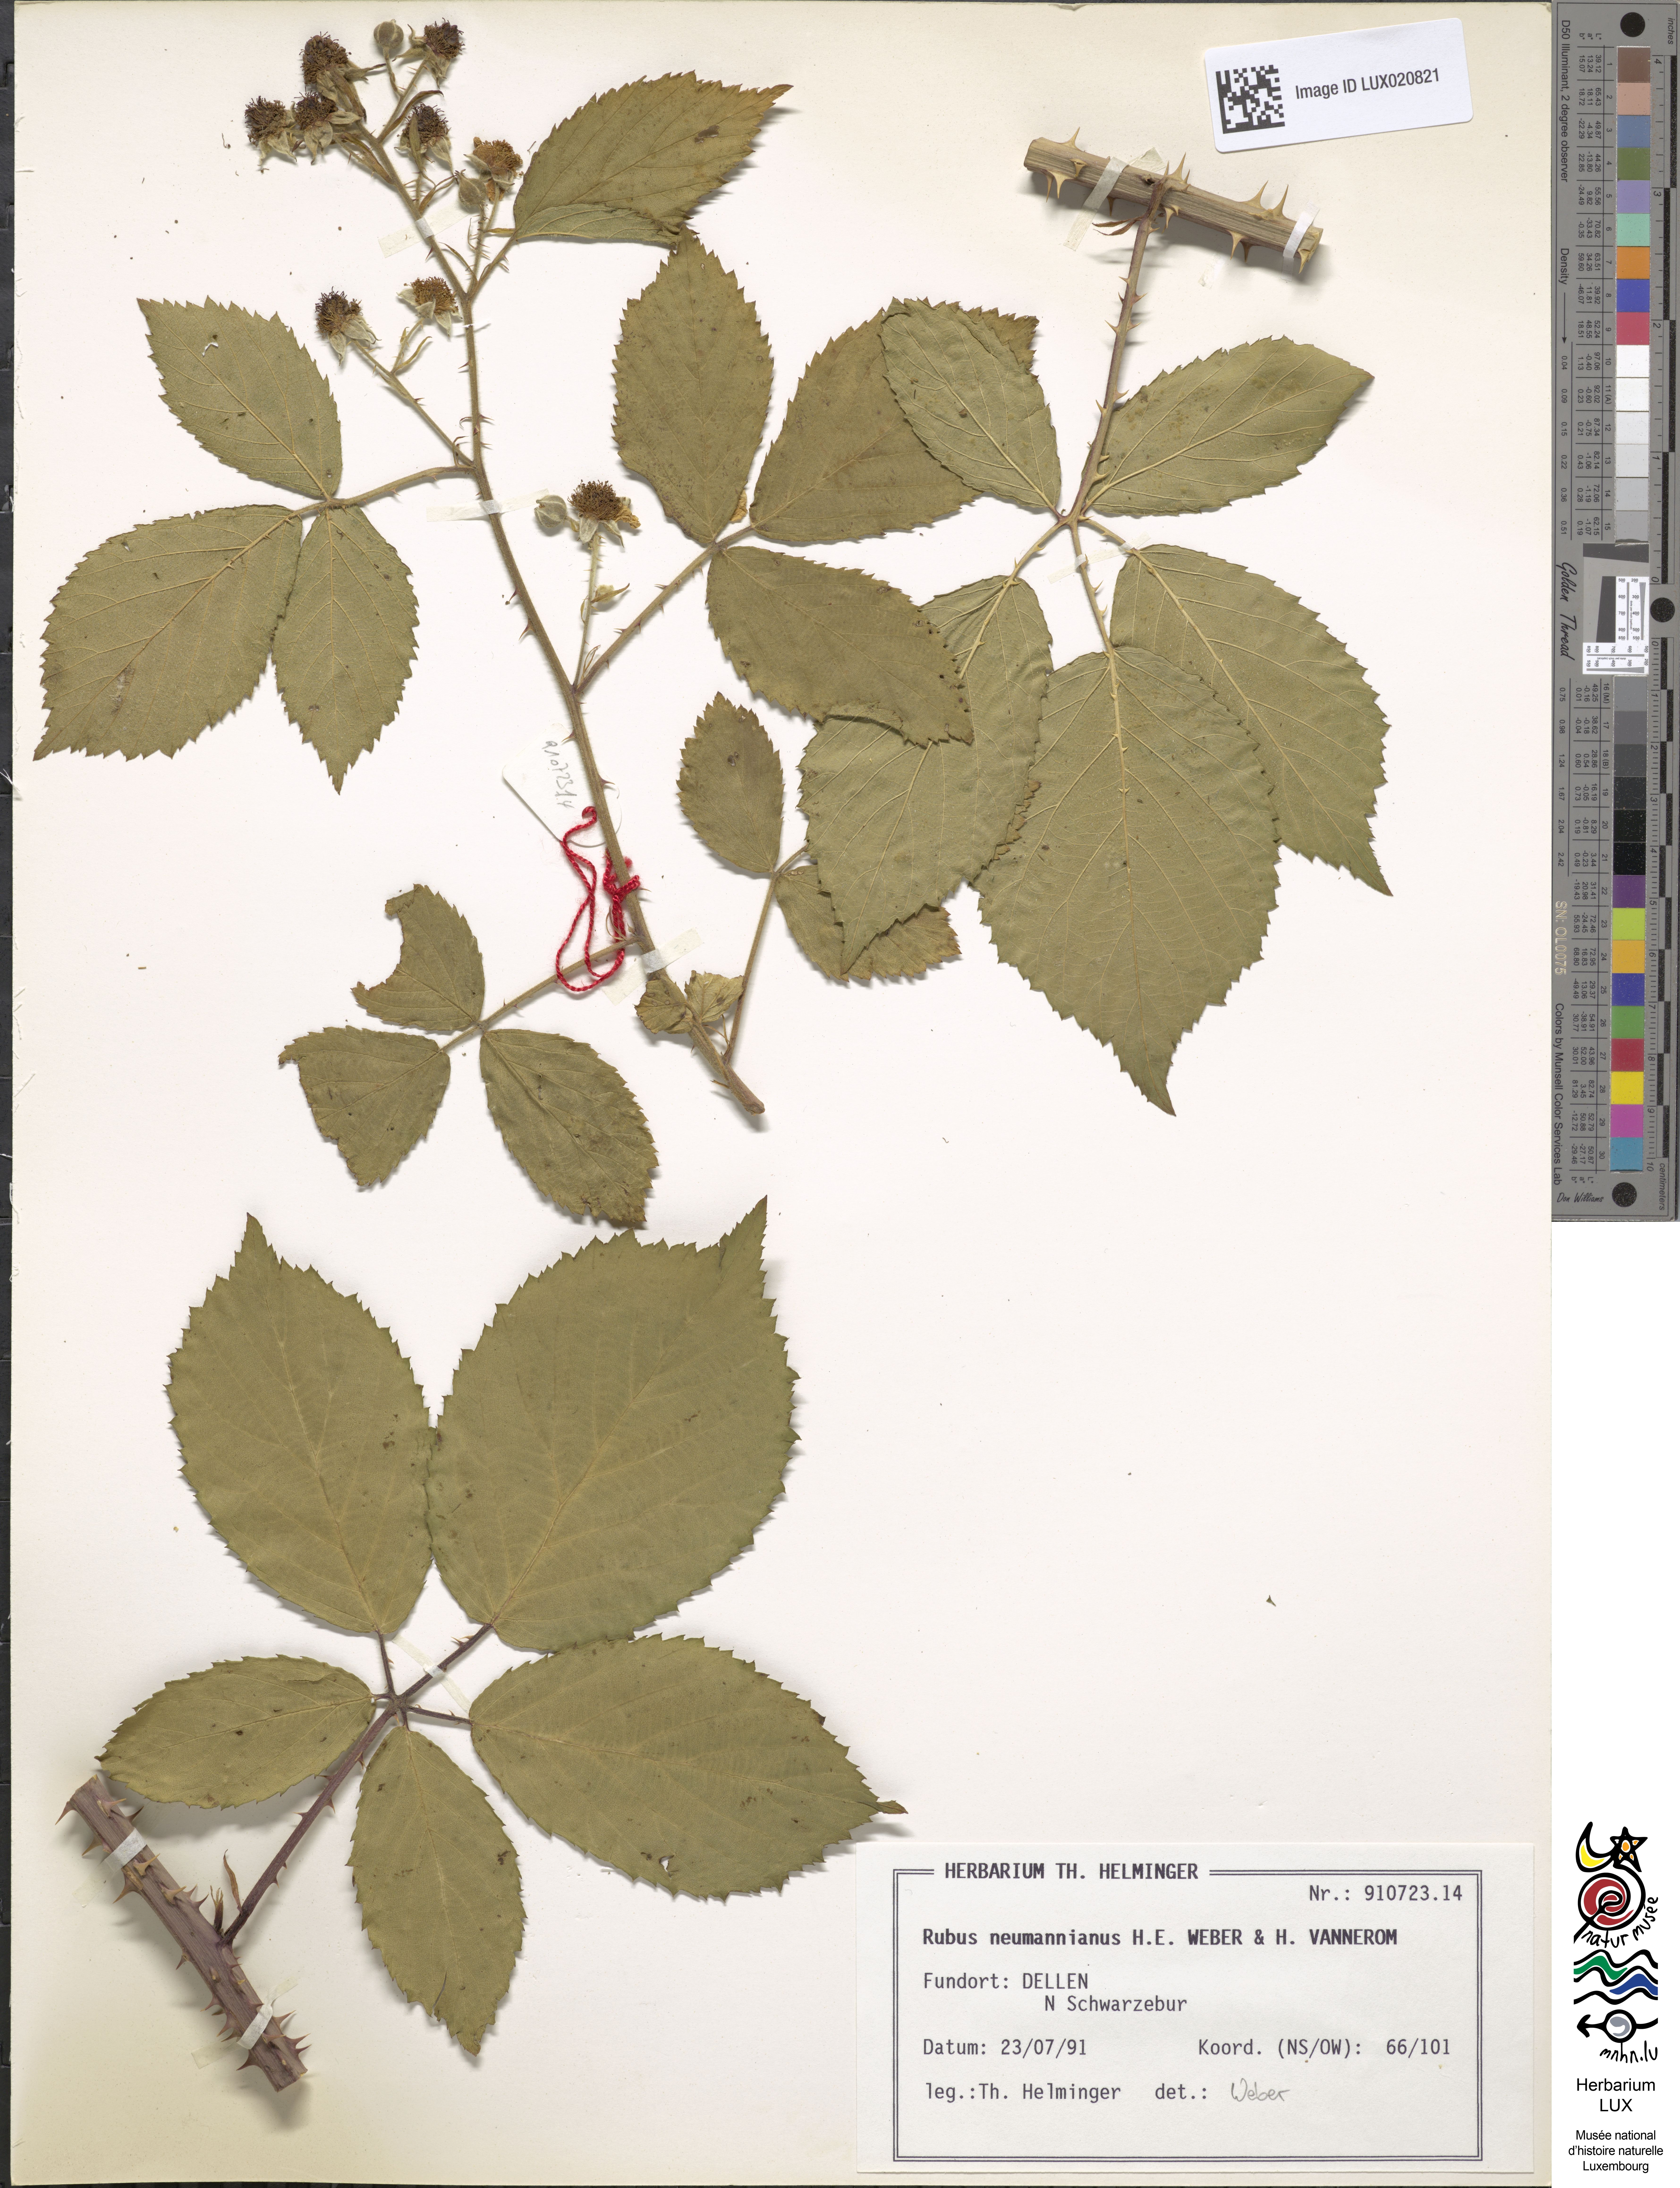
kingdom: Plantae
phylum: Tracheophyta
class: Magnoliopsida
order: Rosales
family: Rosaceae
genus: Rubus
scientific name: Rubus favonii
